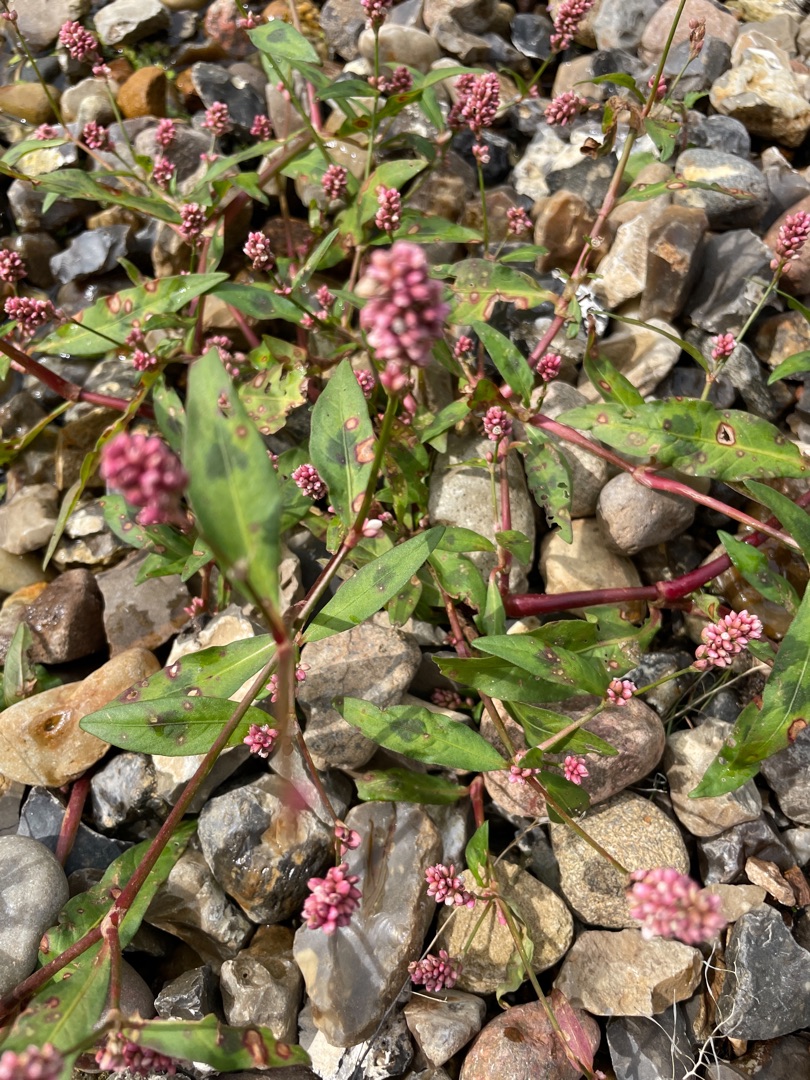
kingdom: Plantae
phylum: Tracheophyta
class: Magnoliopsida
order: Caryophyllales
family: Polygonaceae
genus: Persicaria
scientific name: Persicaria maculosa
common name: Fersken-pileurt
